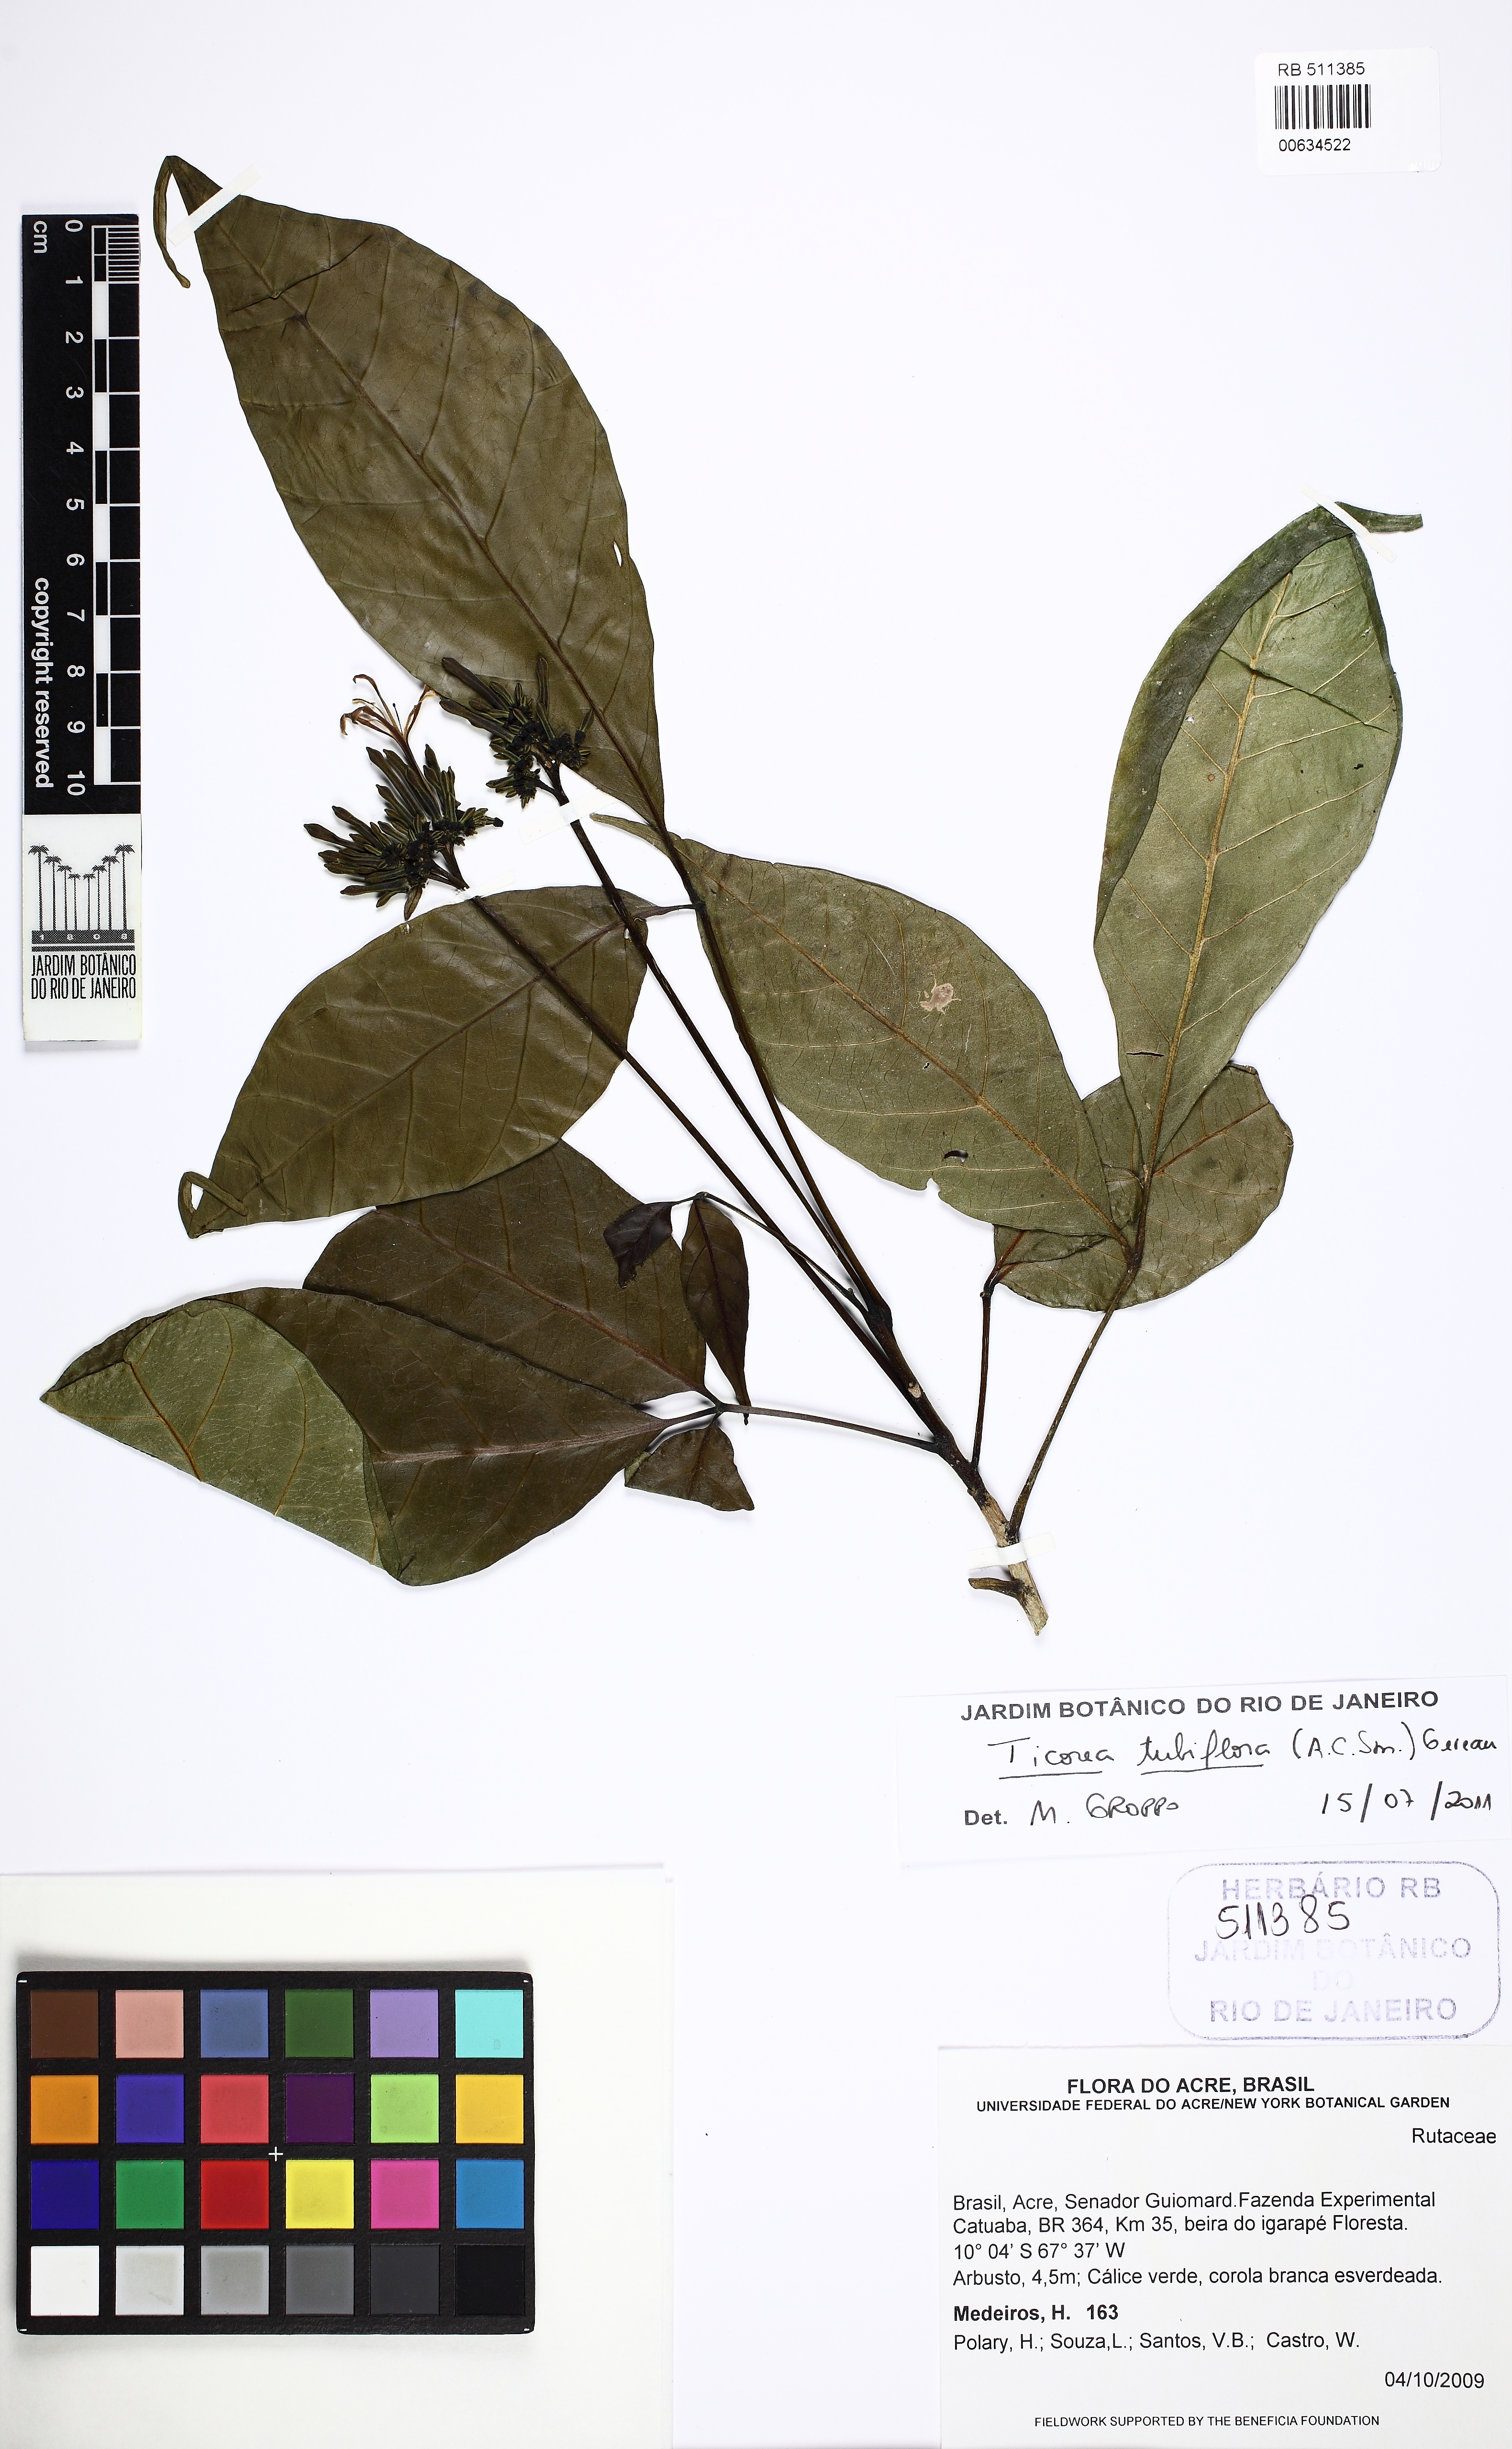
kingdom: Plantae
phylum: Tracheophyta
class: Magnoliopsida
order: Sapindales
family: Rutaceae
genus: Ticorea
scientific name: Ticorea tubiflora
